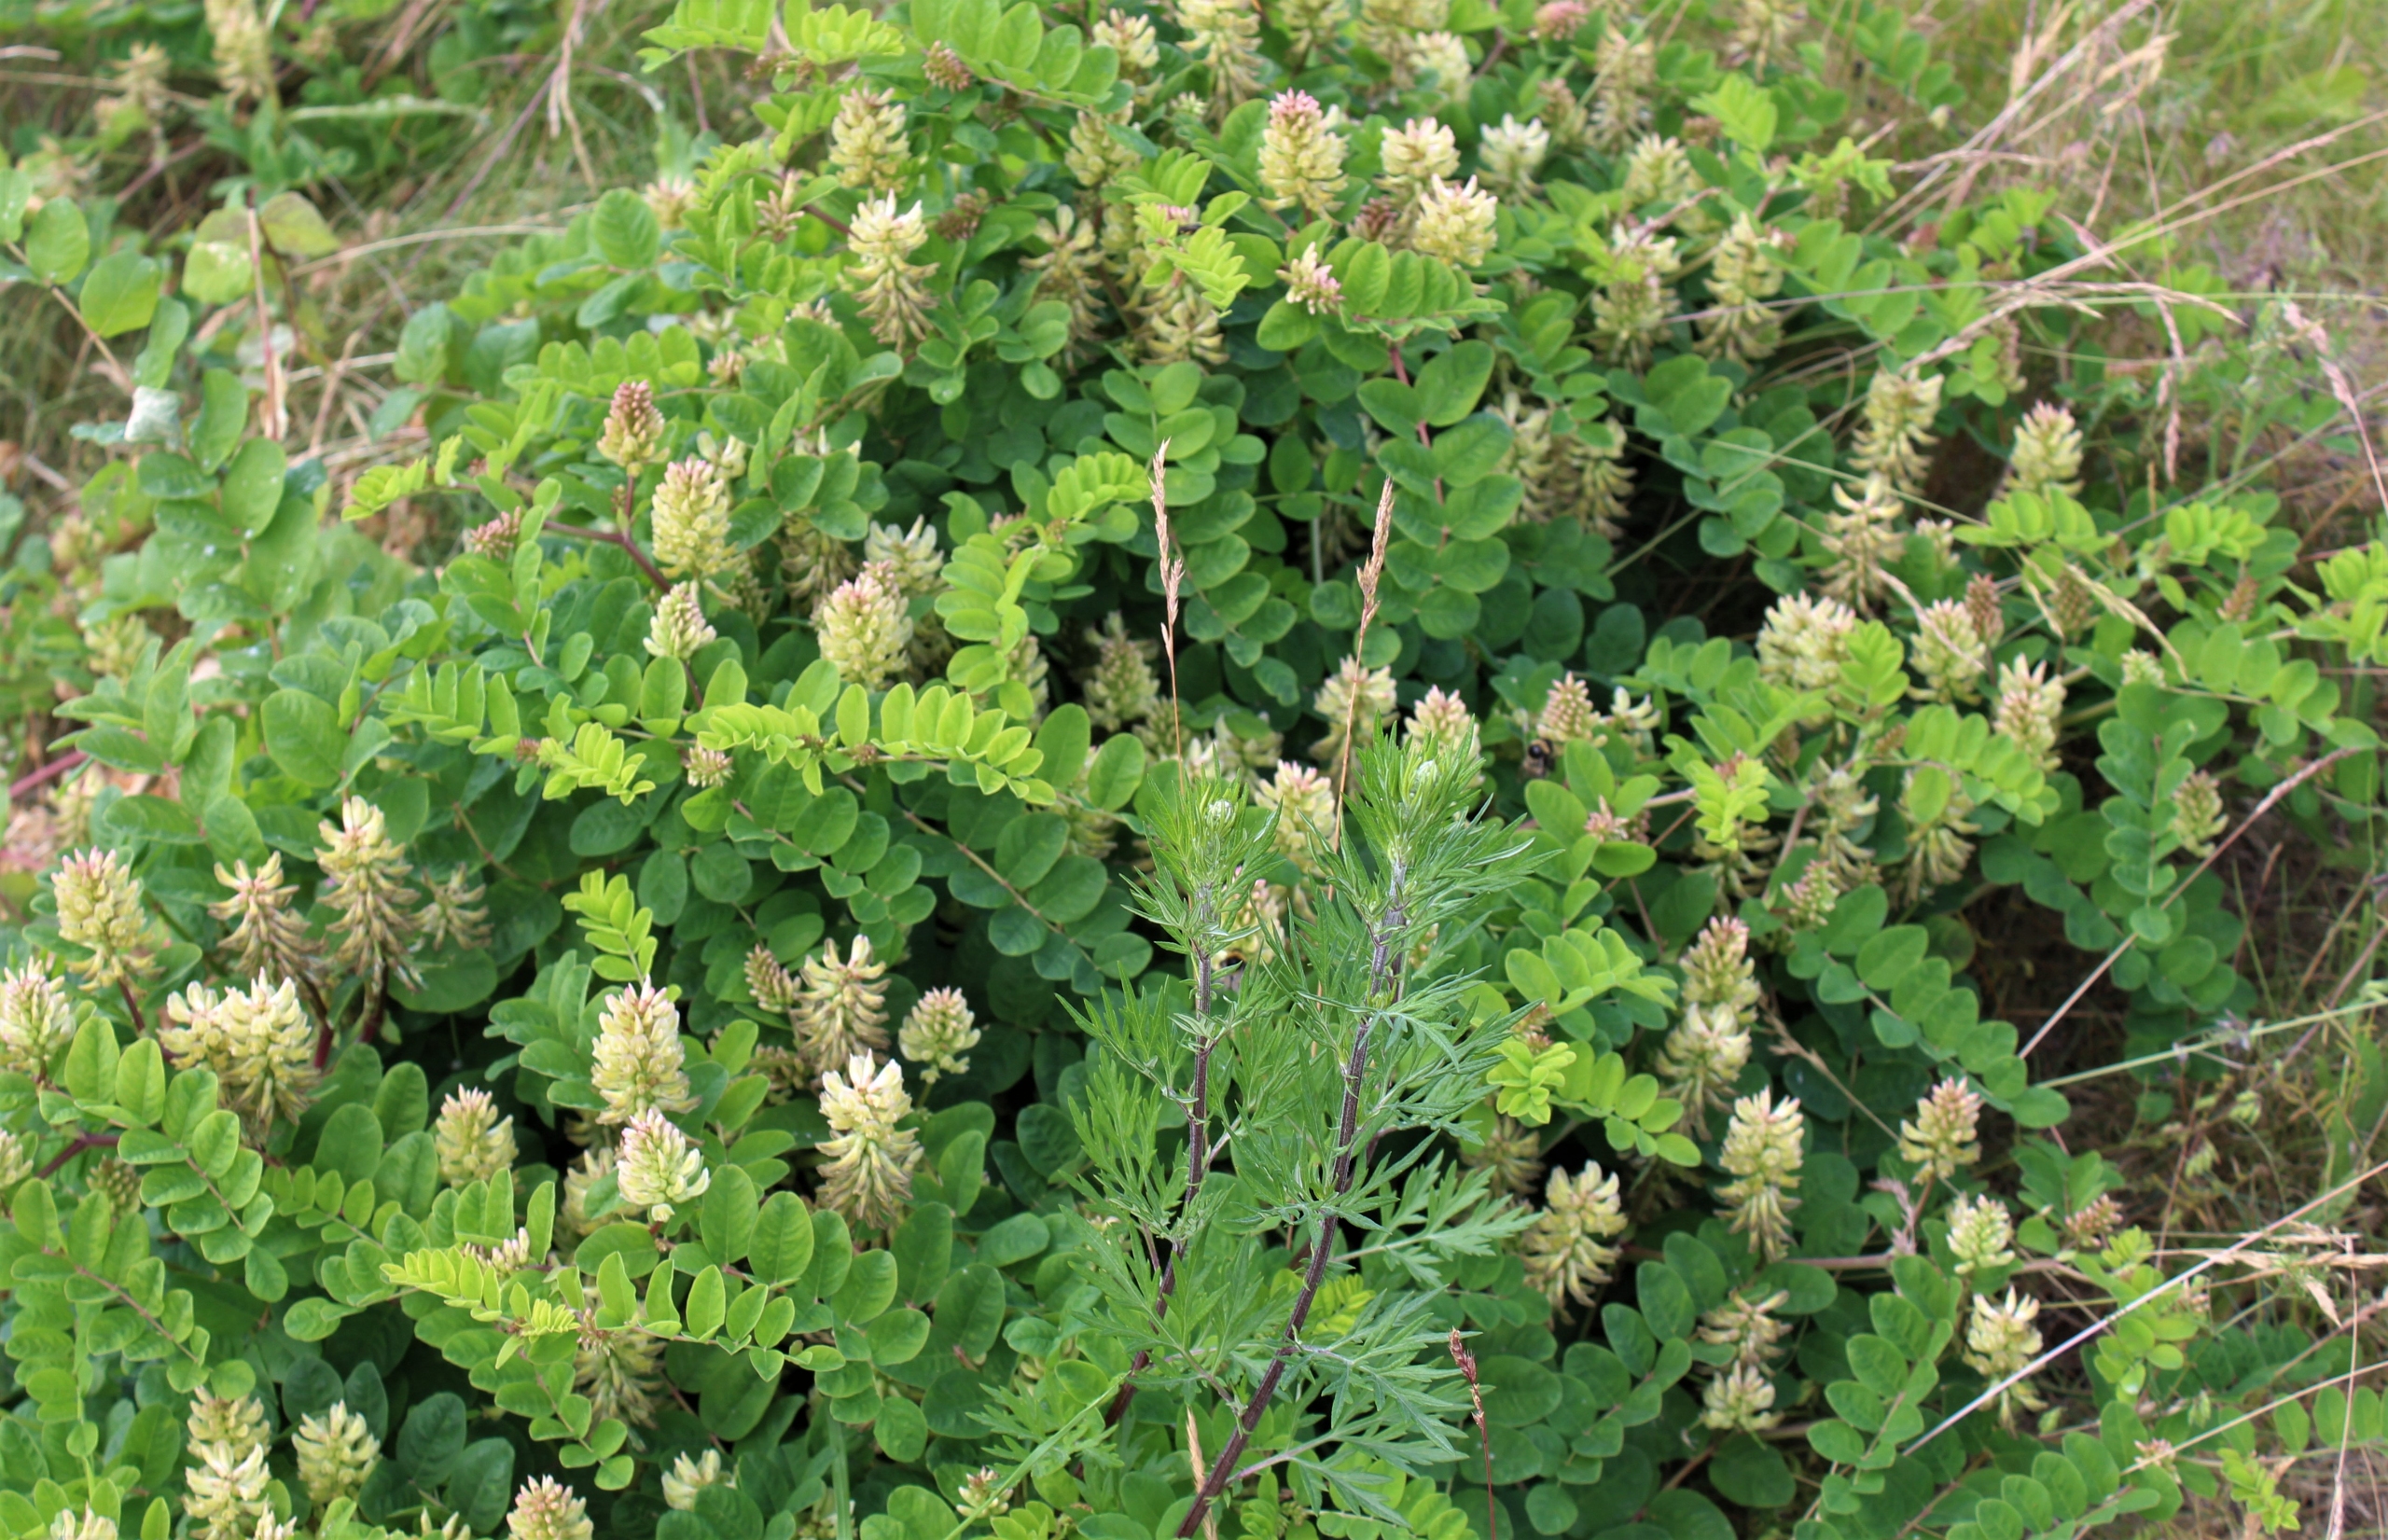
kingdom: Plantae
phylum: Tracheophyta
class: Magnoliopsida
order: Fabales
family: Fabaceae
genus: Astragalus
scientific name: Astragalus glycyphyllos
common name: Sød astragel
